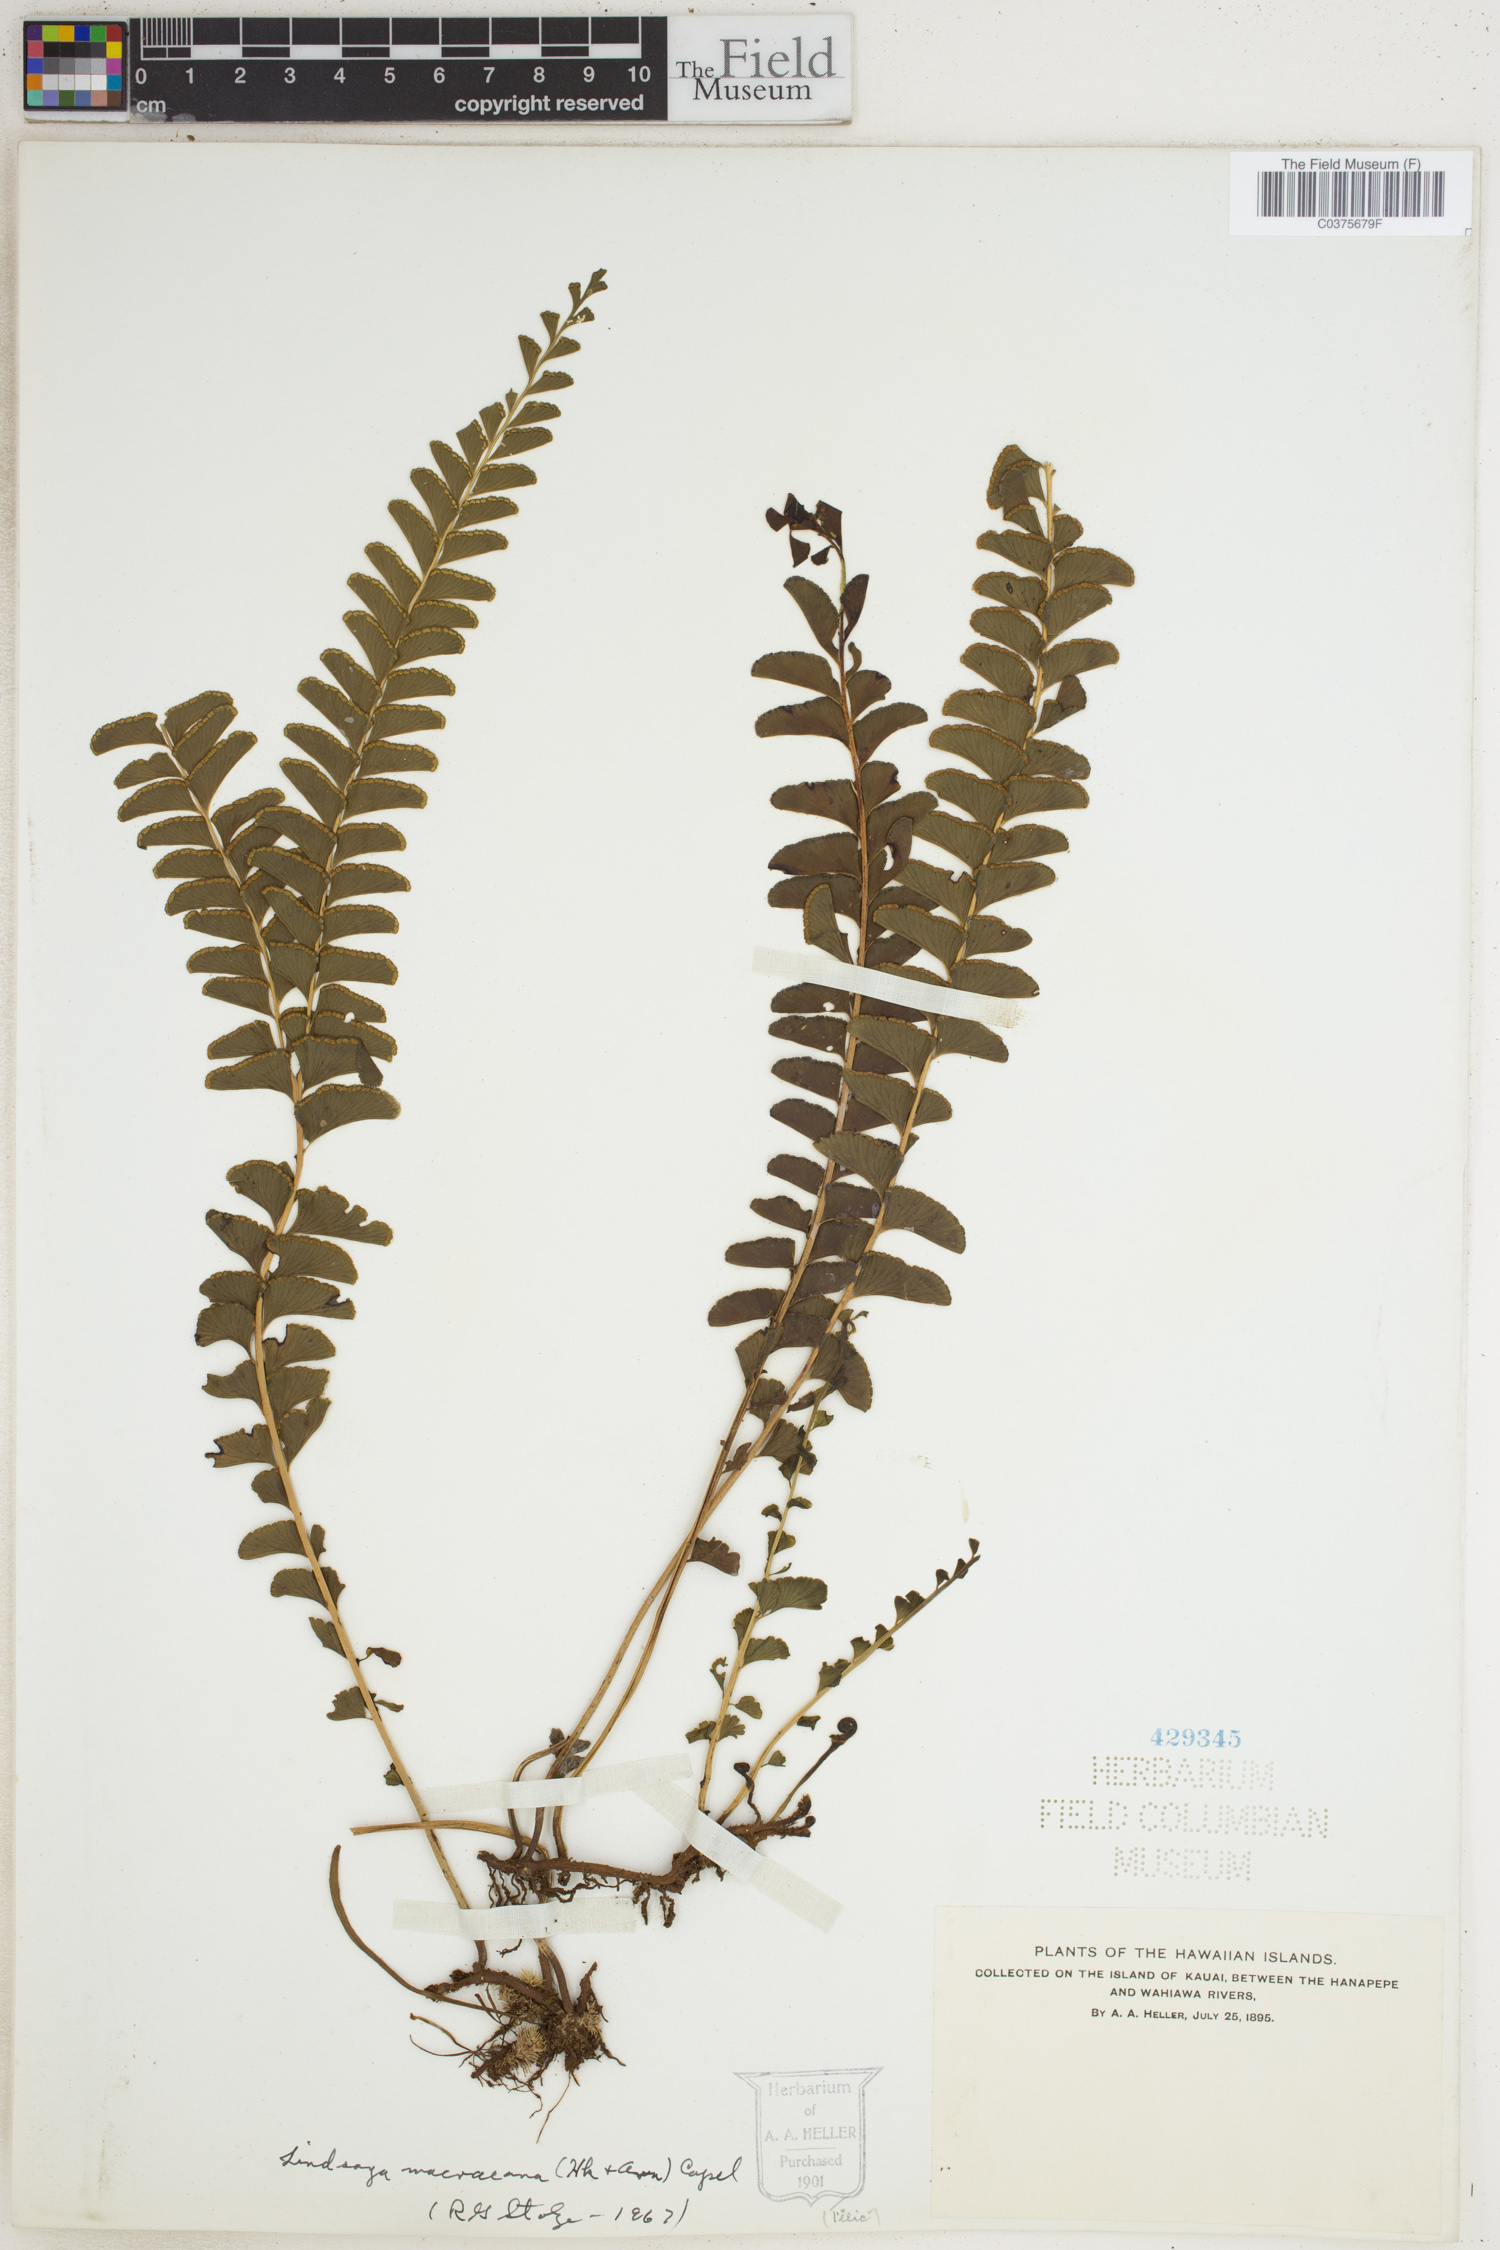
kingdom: Plantae
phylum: Tracheophyta
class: Polypodiopsida
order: Polypodiales
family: Lindsaeaceae
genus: Lindsaea
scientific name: Lindsaea macraeana
